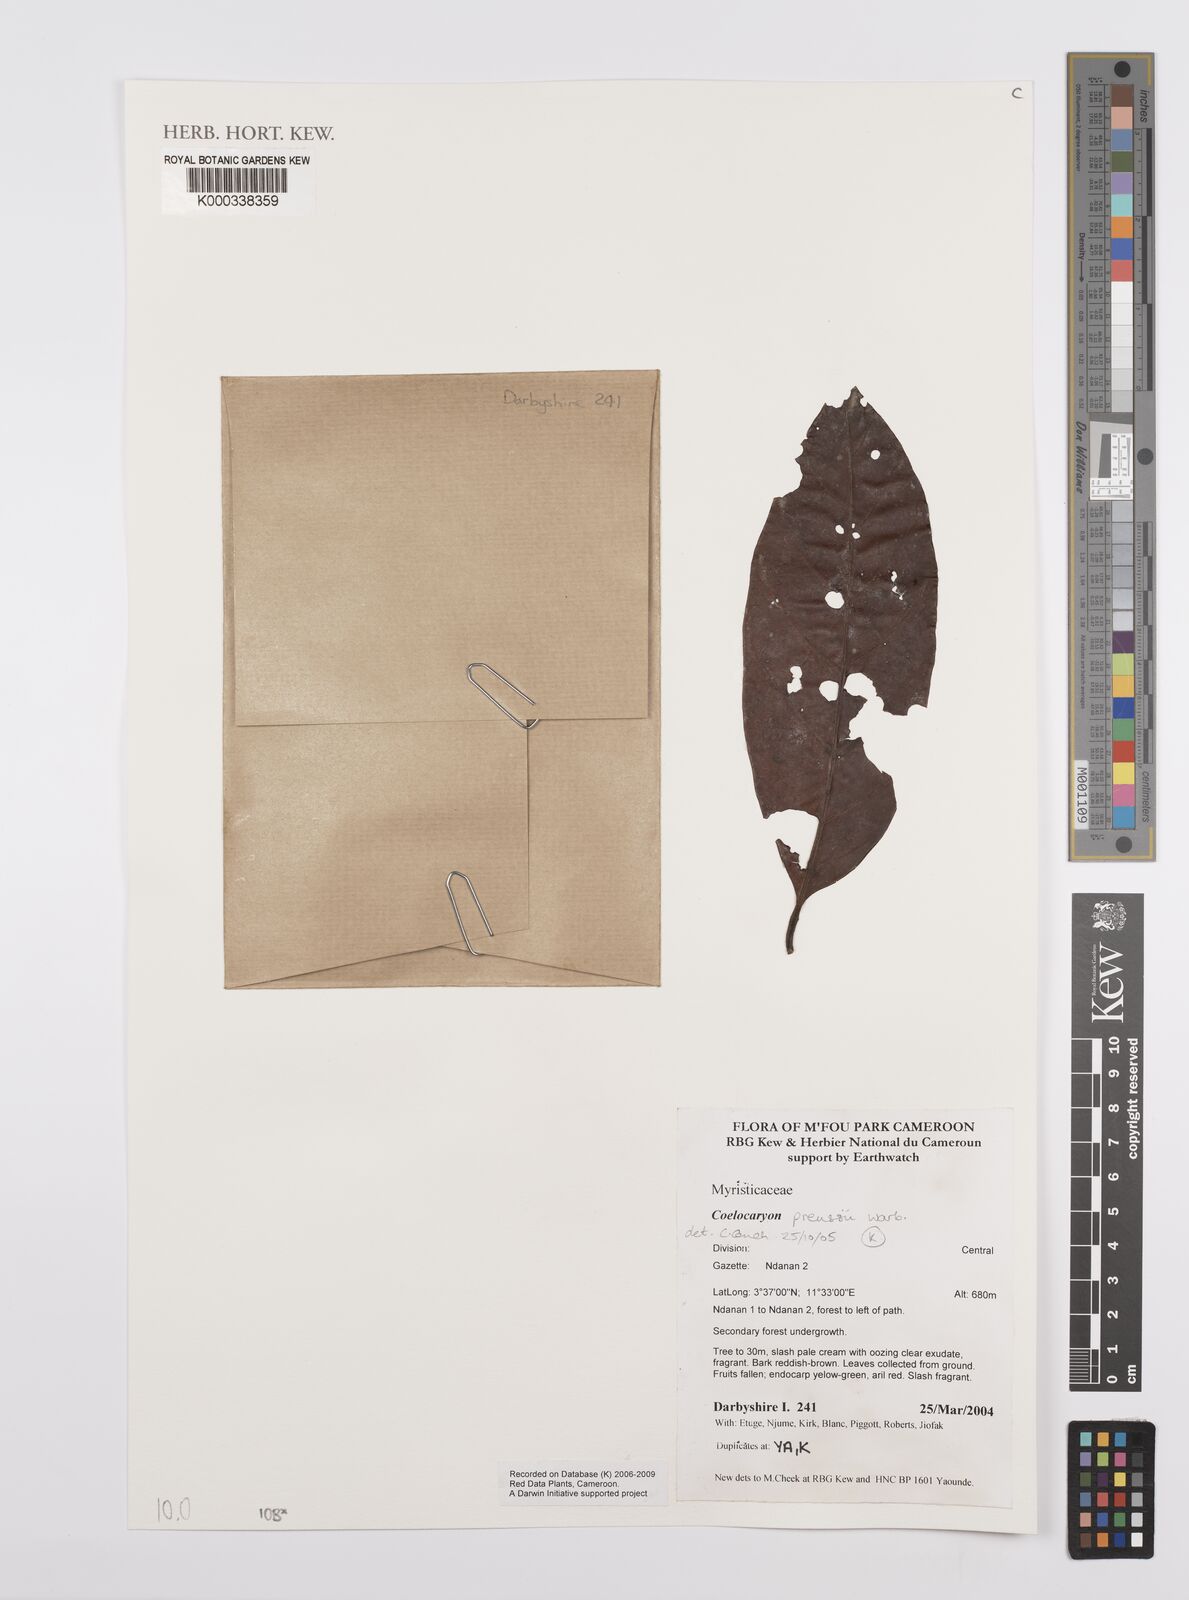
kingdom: Plantae
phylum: Tracheophyta
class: Magnoliopsida
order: Magnoliales
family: Myristicaceae
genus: Coelocaryon
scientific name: Coelocaryon preussii
